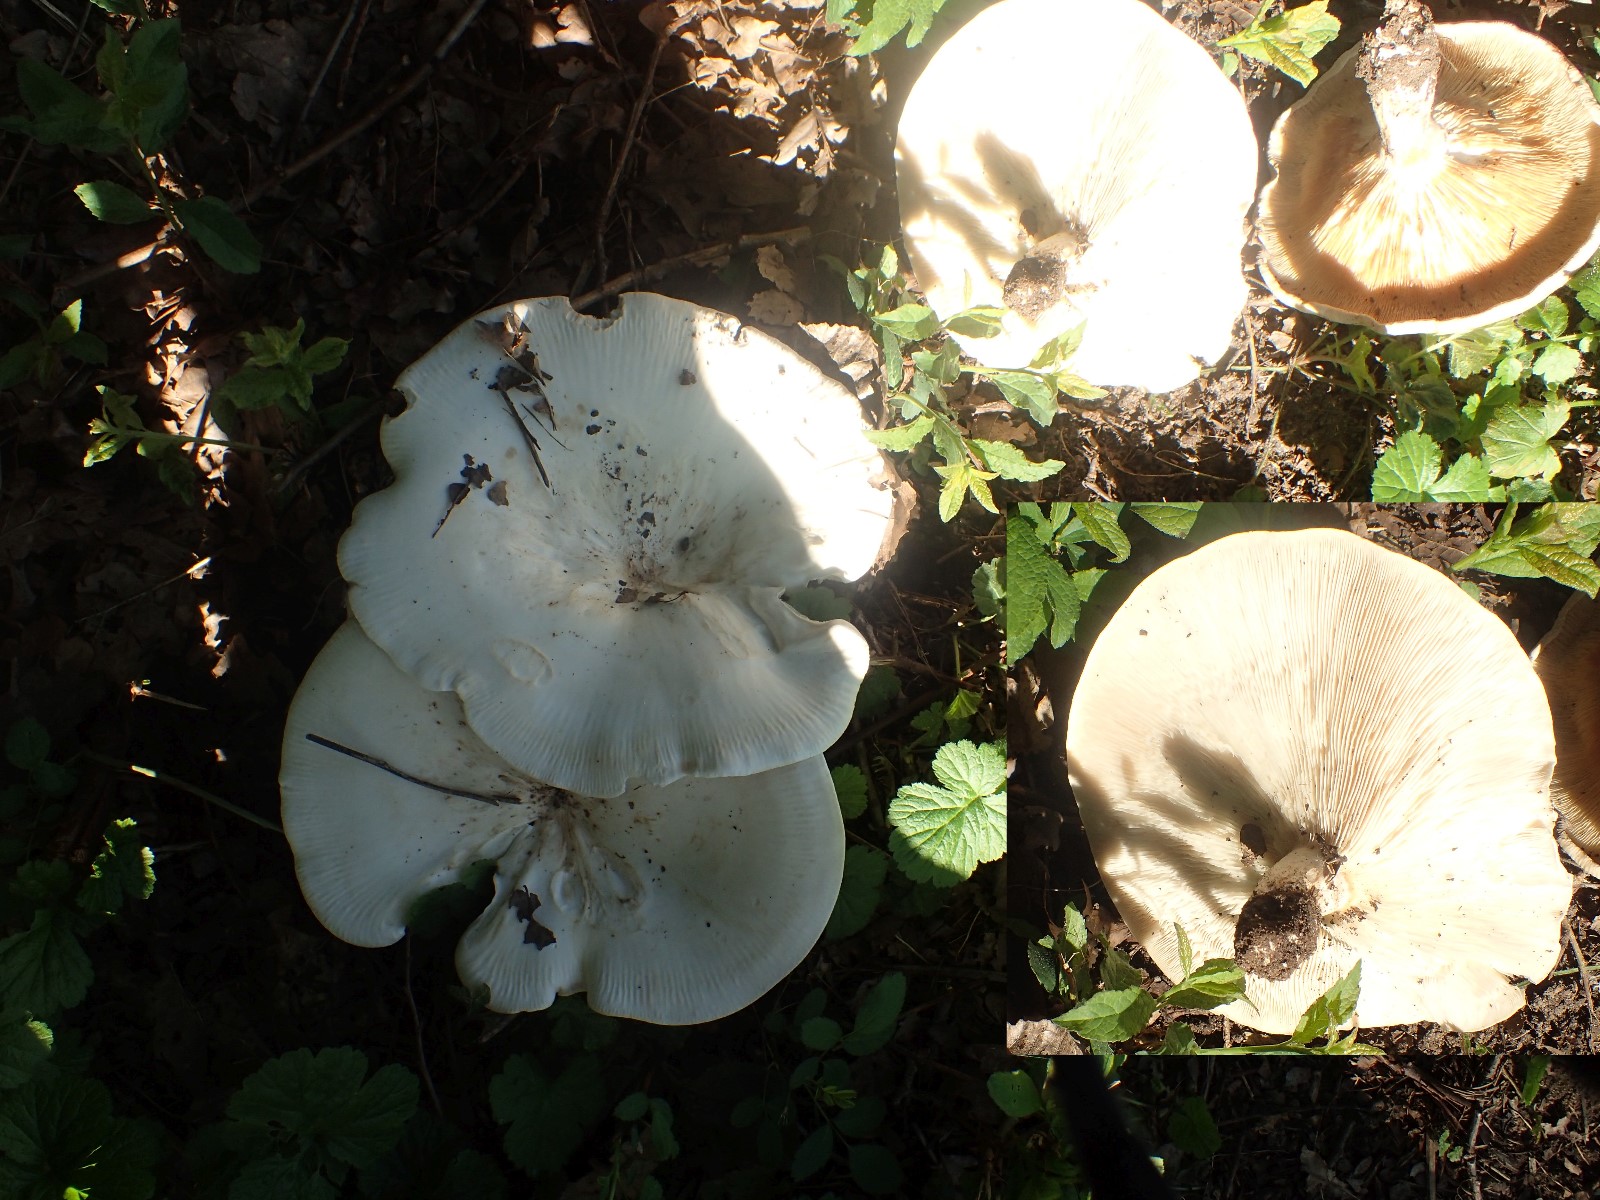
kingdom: Fungi
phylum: Basidiomycota
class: Agaricomycetes
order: Agaricales
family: Tricholomataceae
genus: Aspropaxillus
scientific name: Aspropaxillus giganteus
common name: kæmpe-tragtridderhat
